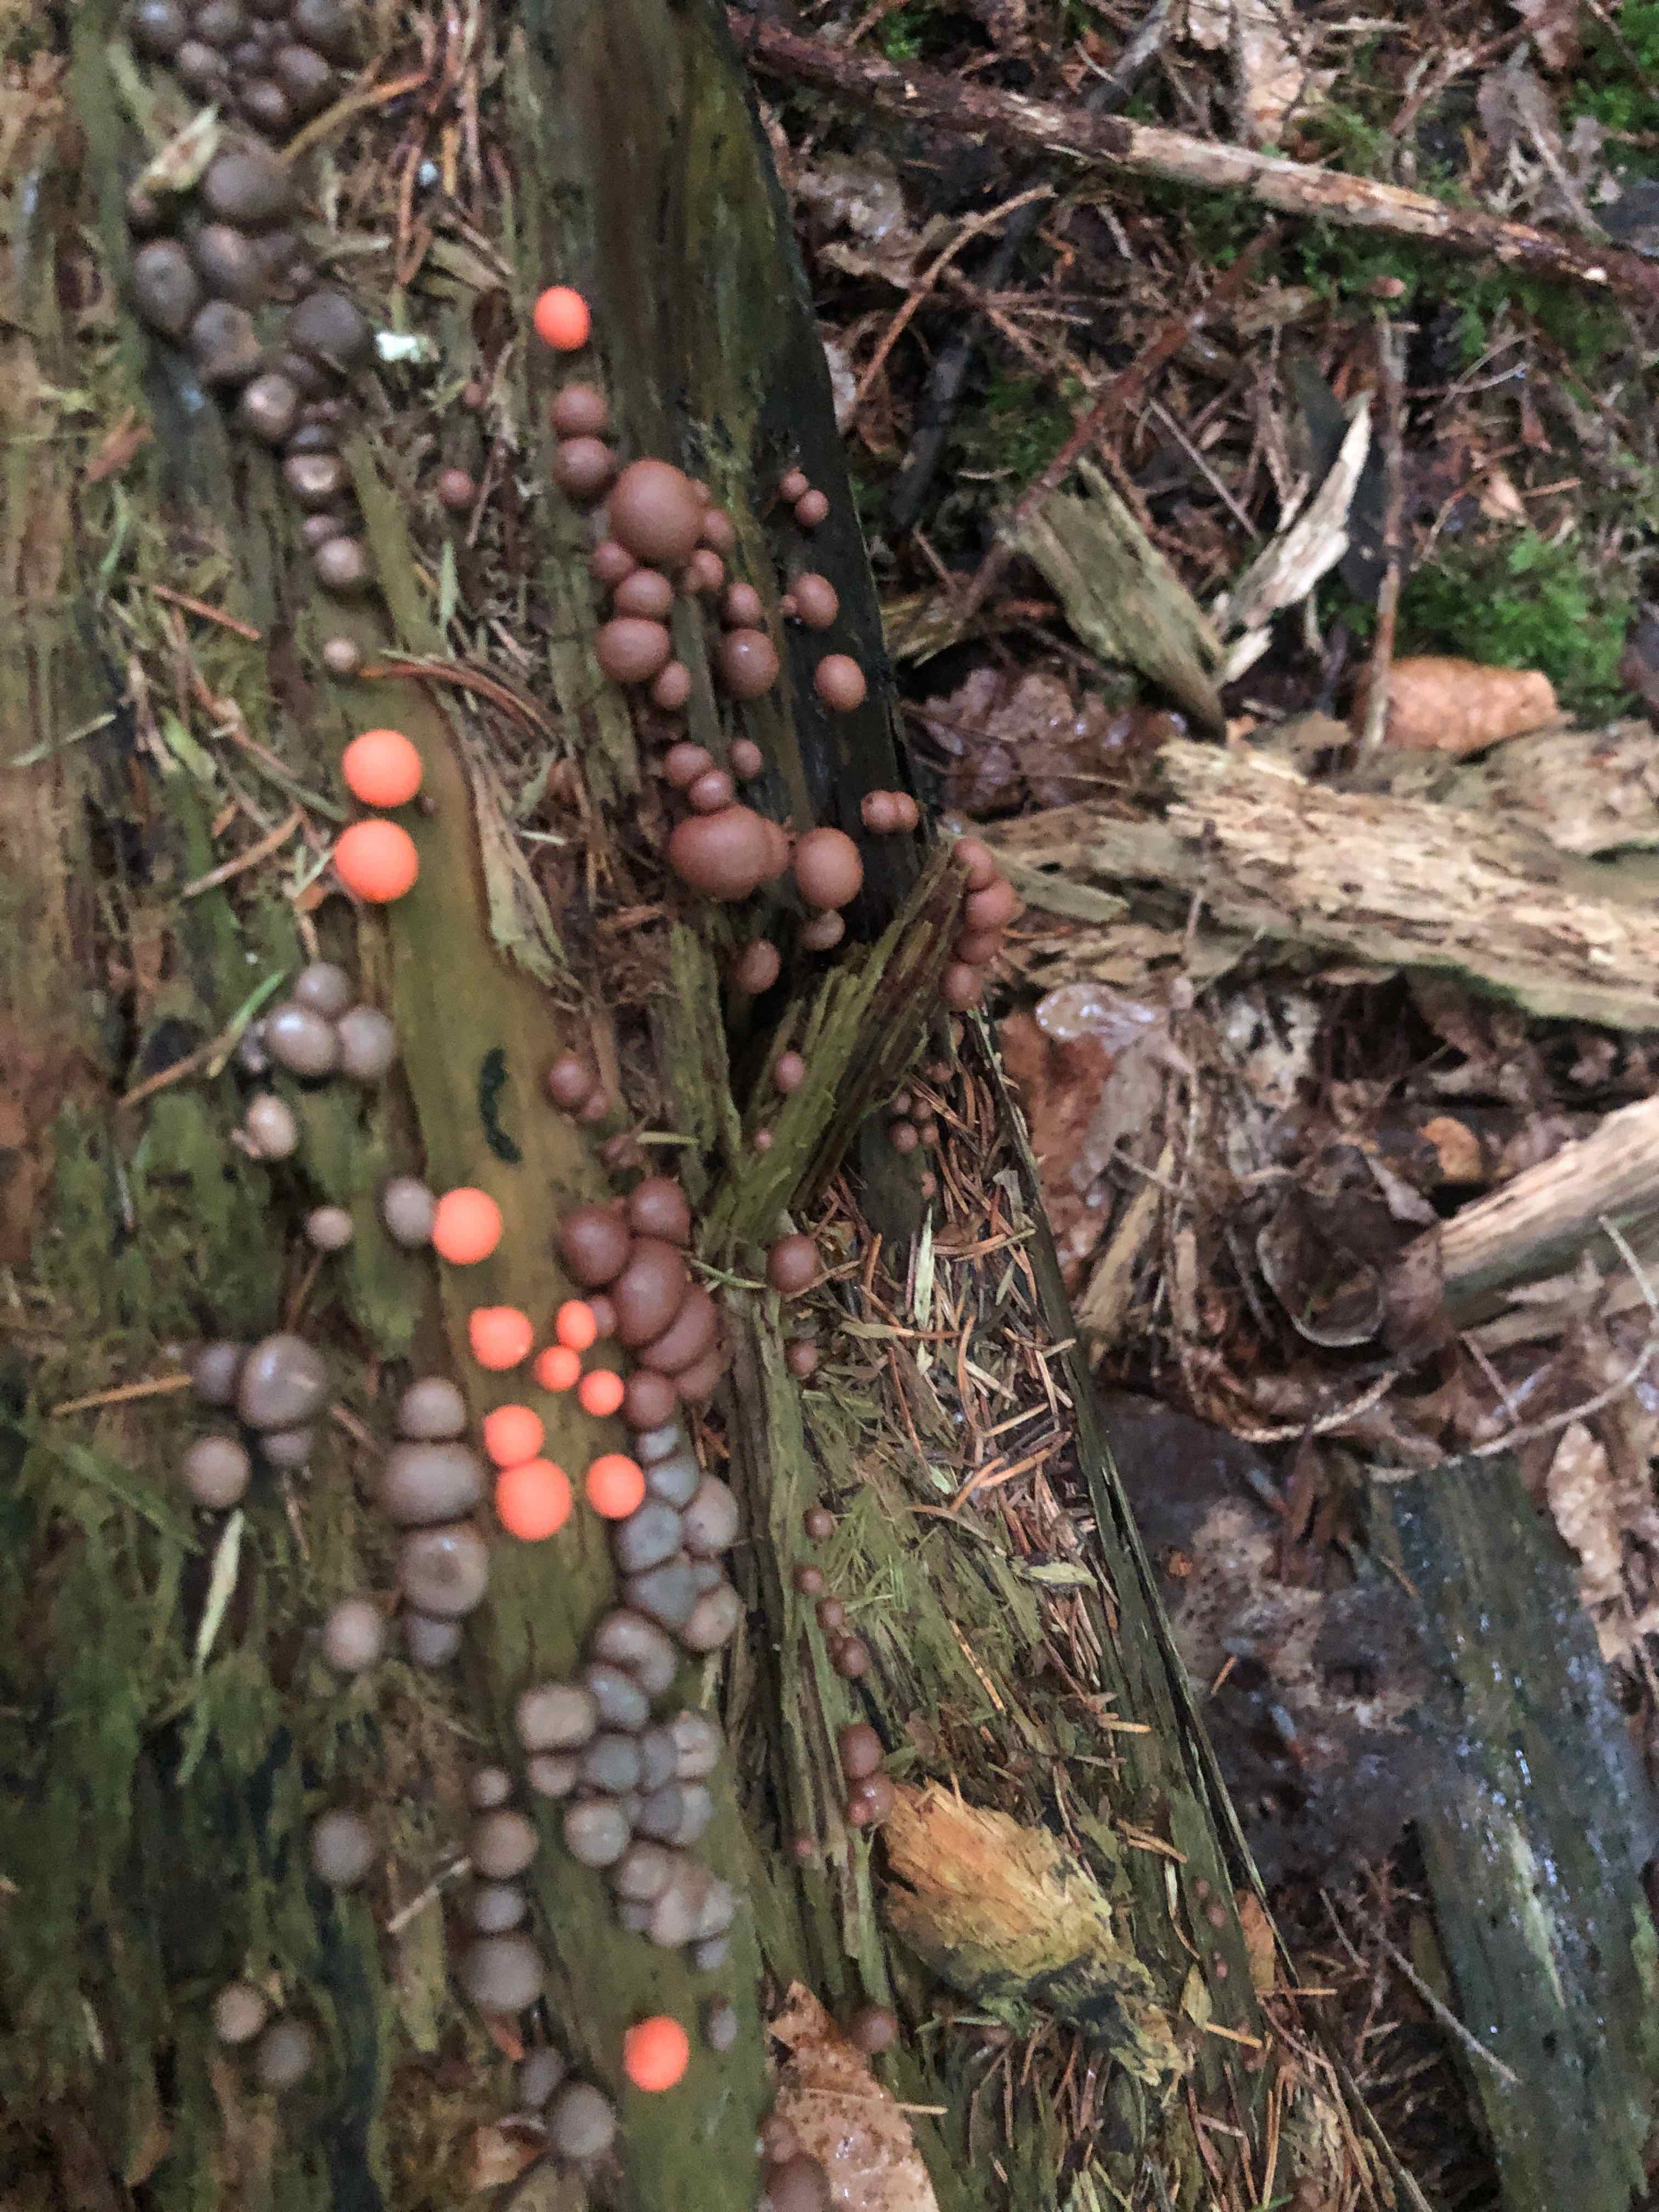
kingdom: Protozoa
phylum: Mycetozoa
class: Myxomycetes
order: Cribrariales
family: Tubiferaceae
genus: Lycogala
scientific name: Lycogala epidendrum
